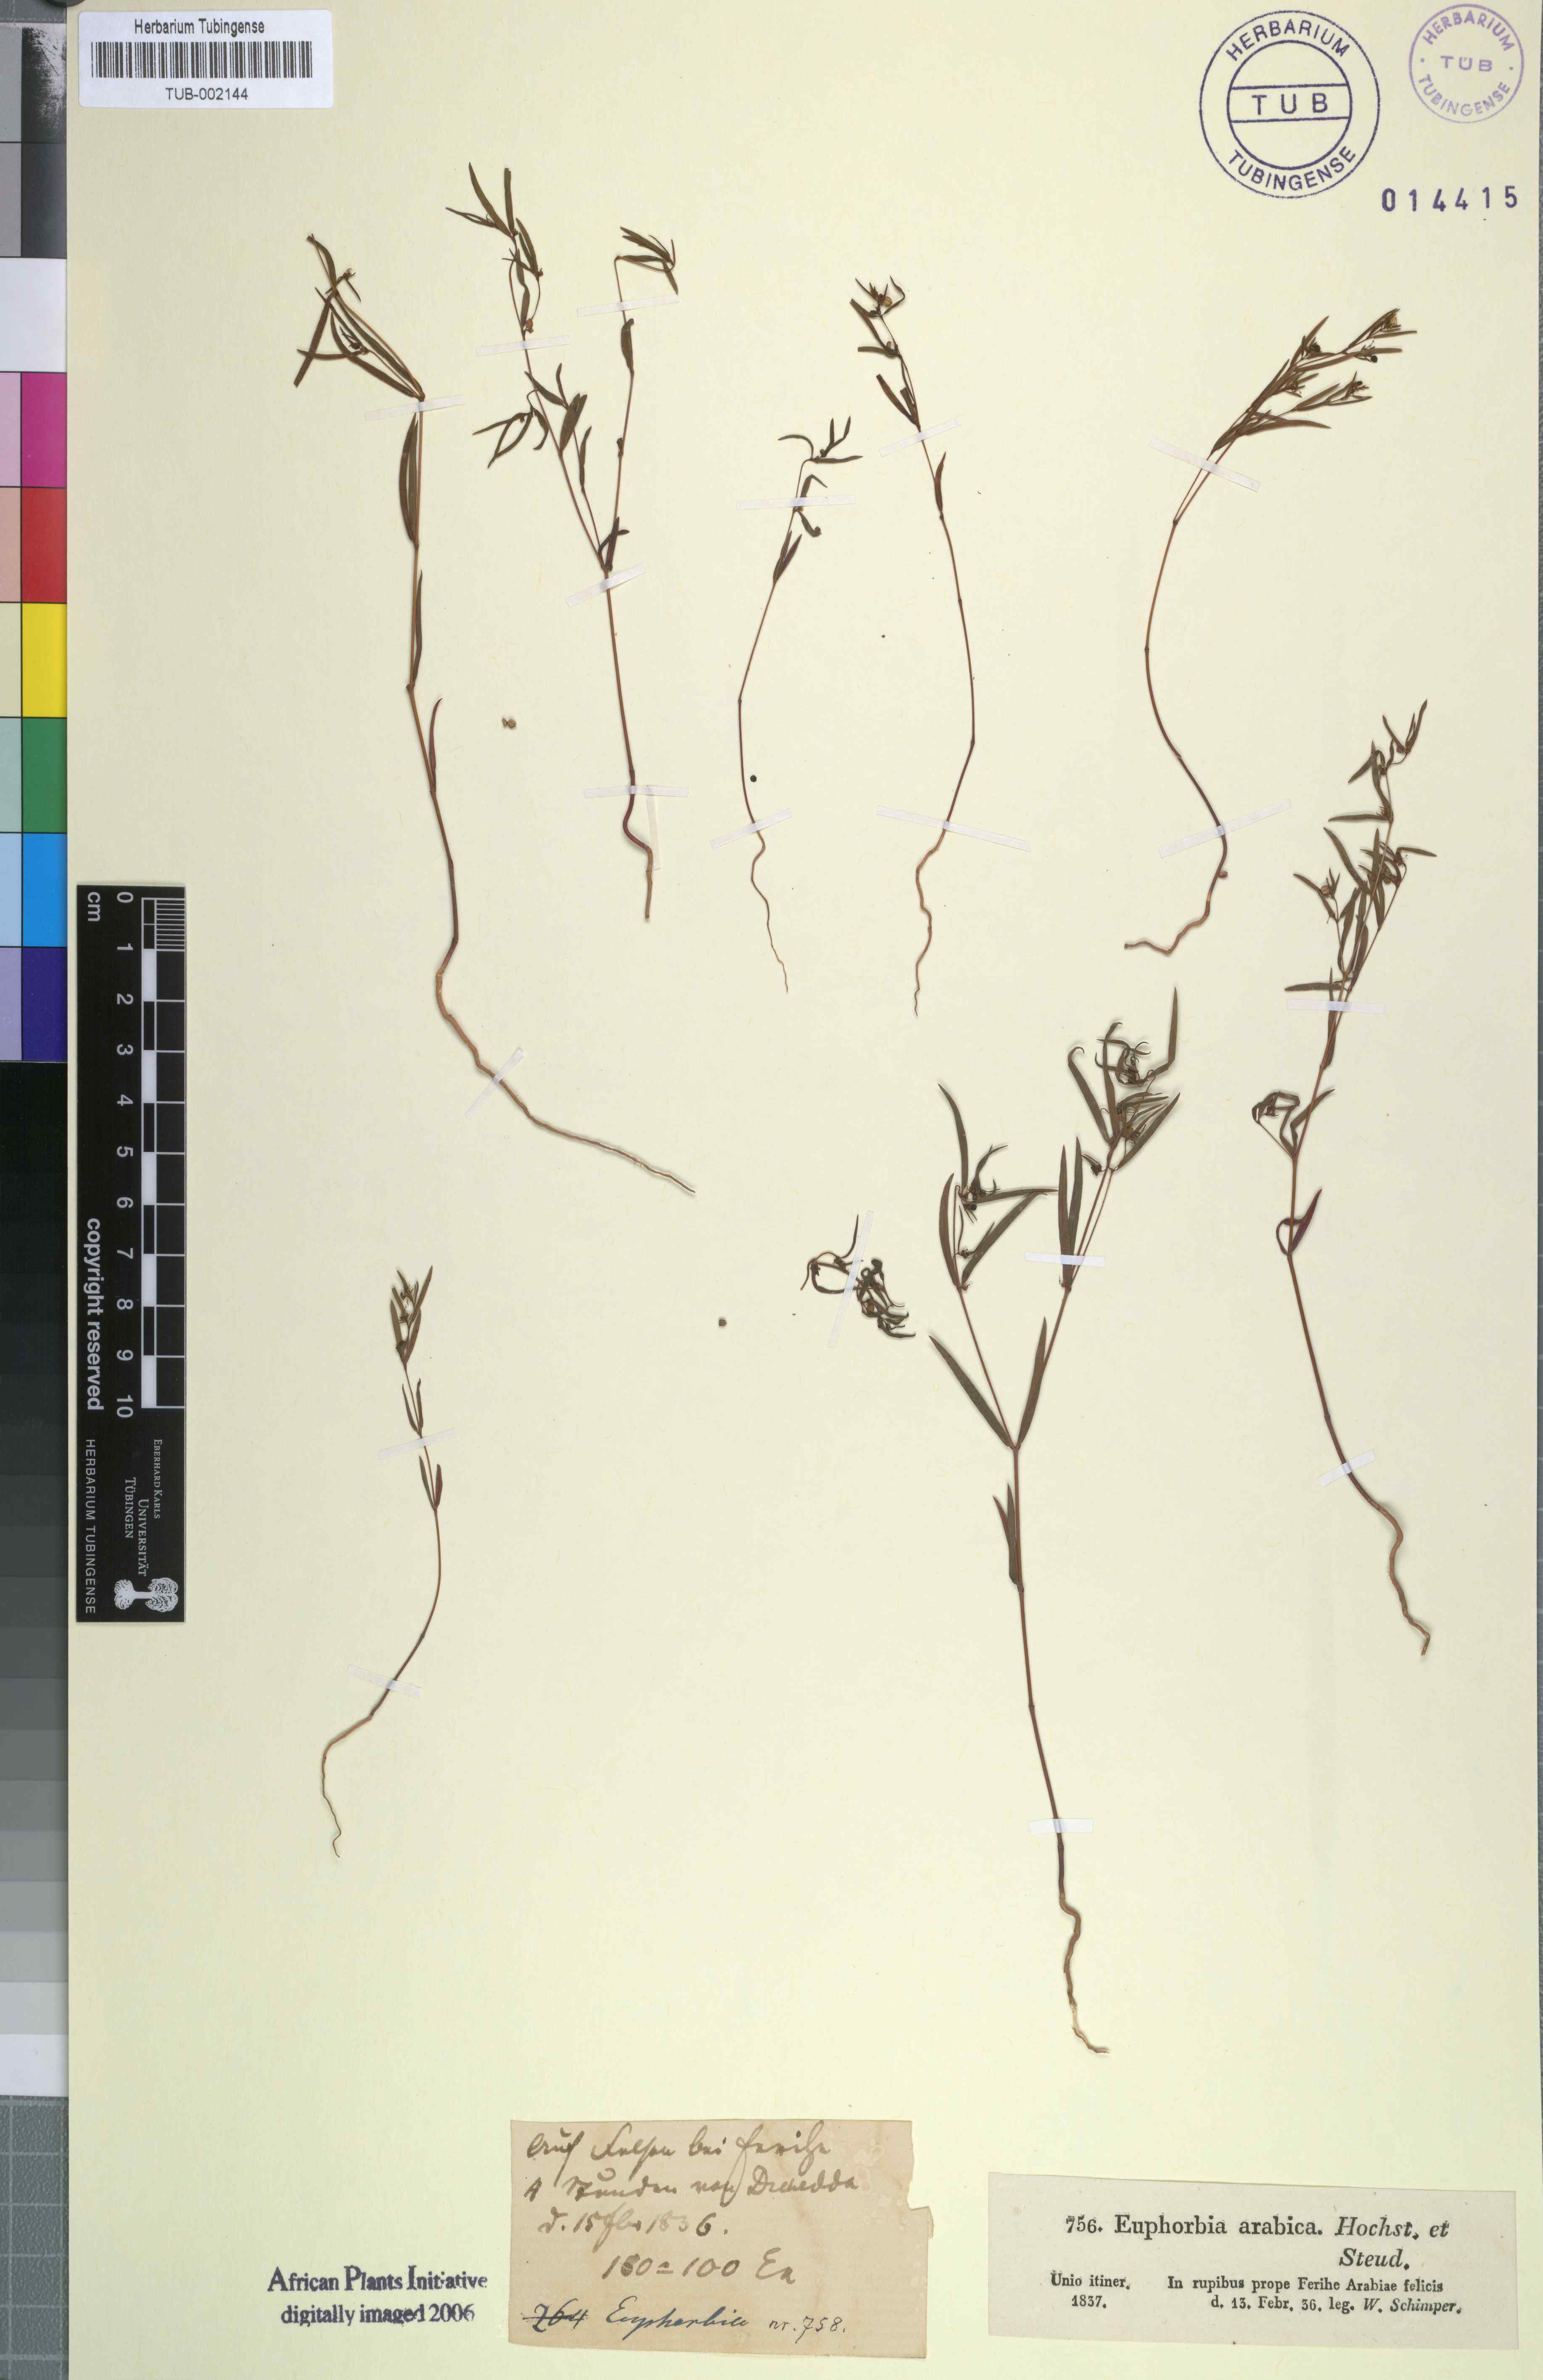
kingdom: Plantae
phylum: Tracheophyta
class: Magnoliopsida
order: Malpighiales
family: Euphorbiaceae
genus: Euphorbia
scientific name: Euphorbia arabica
